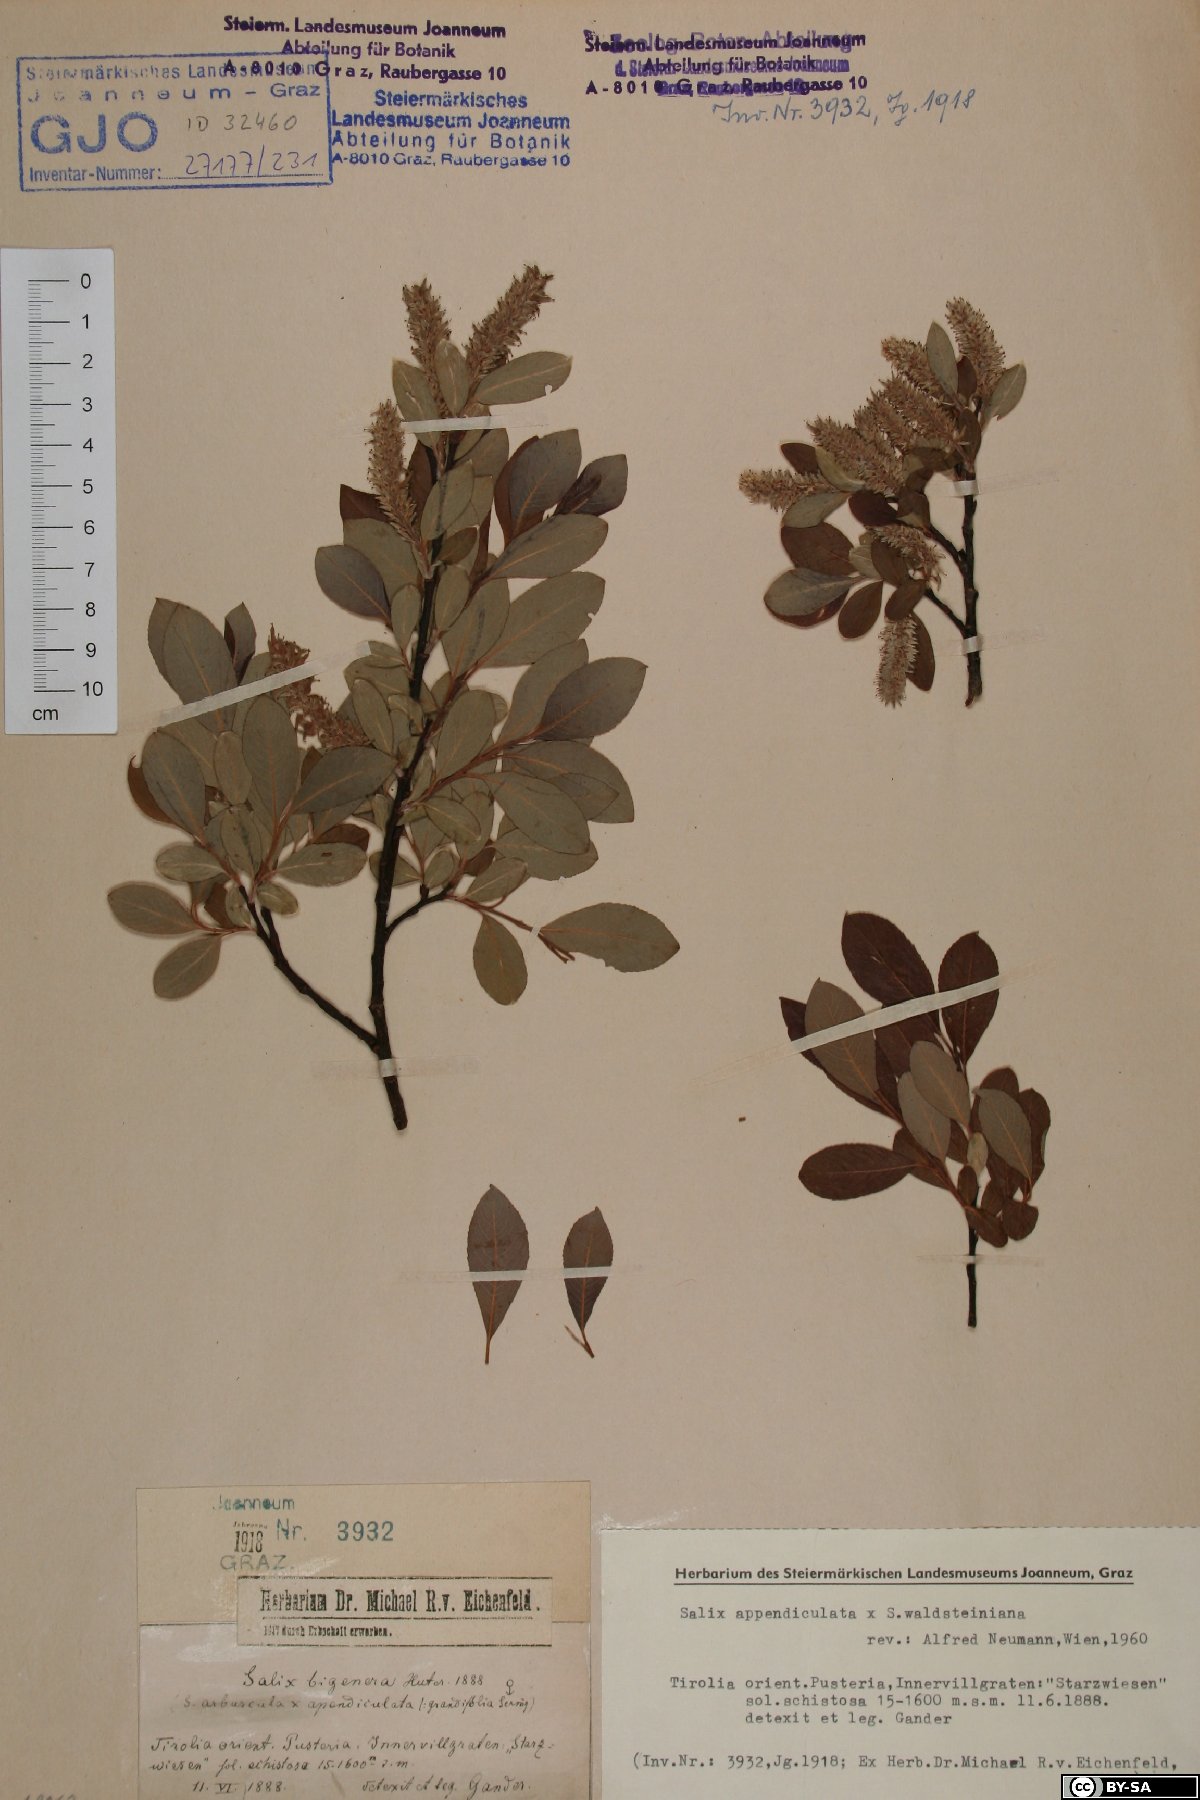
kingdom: Plantae
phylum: Tracheophyta
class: Magnoliopsida
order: Malpighiales
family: Salicaceae
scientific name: Salicaceae
